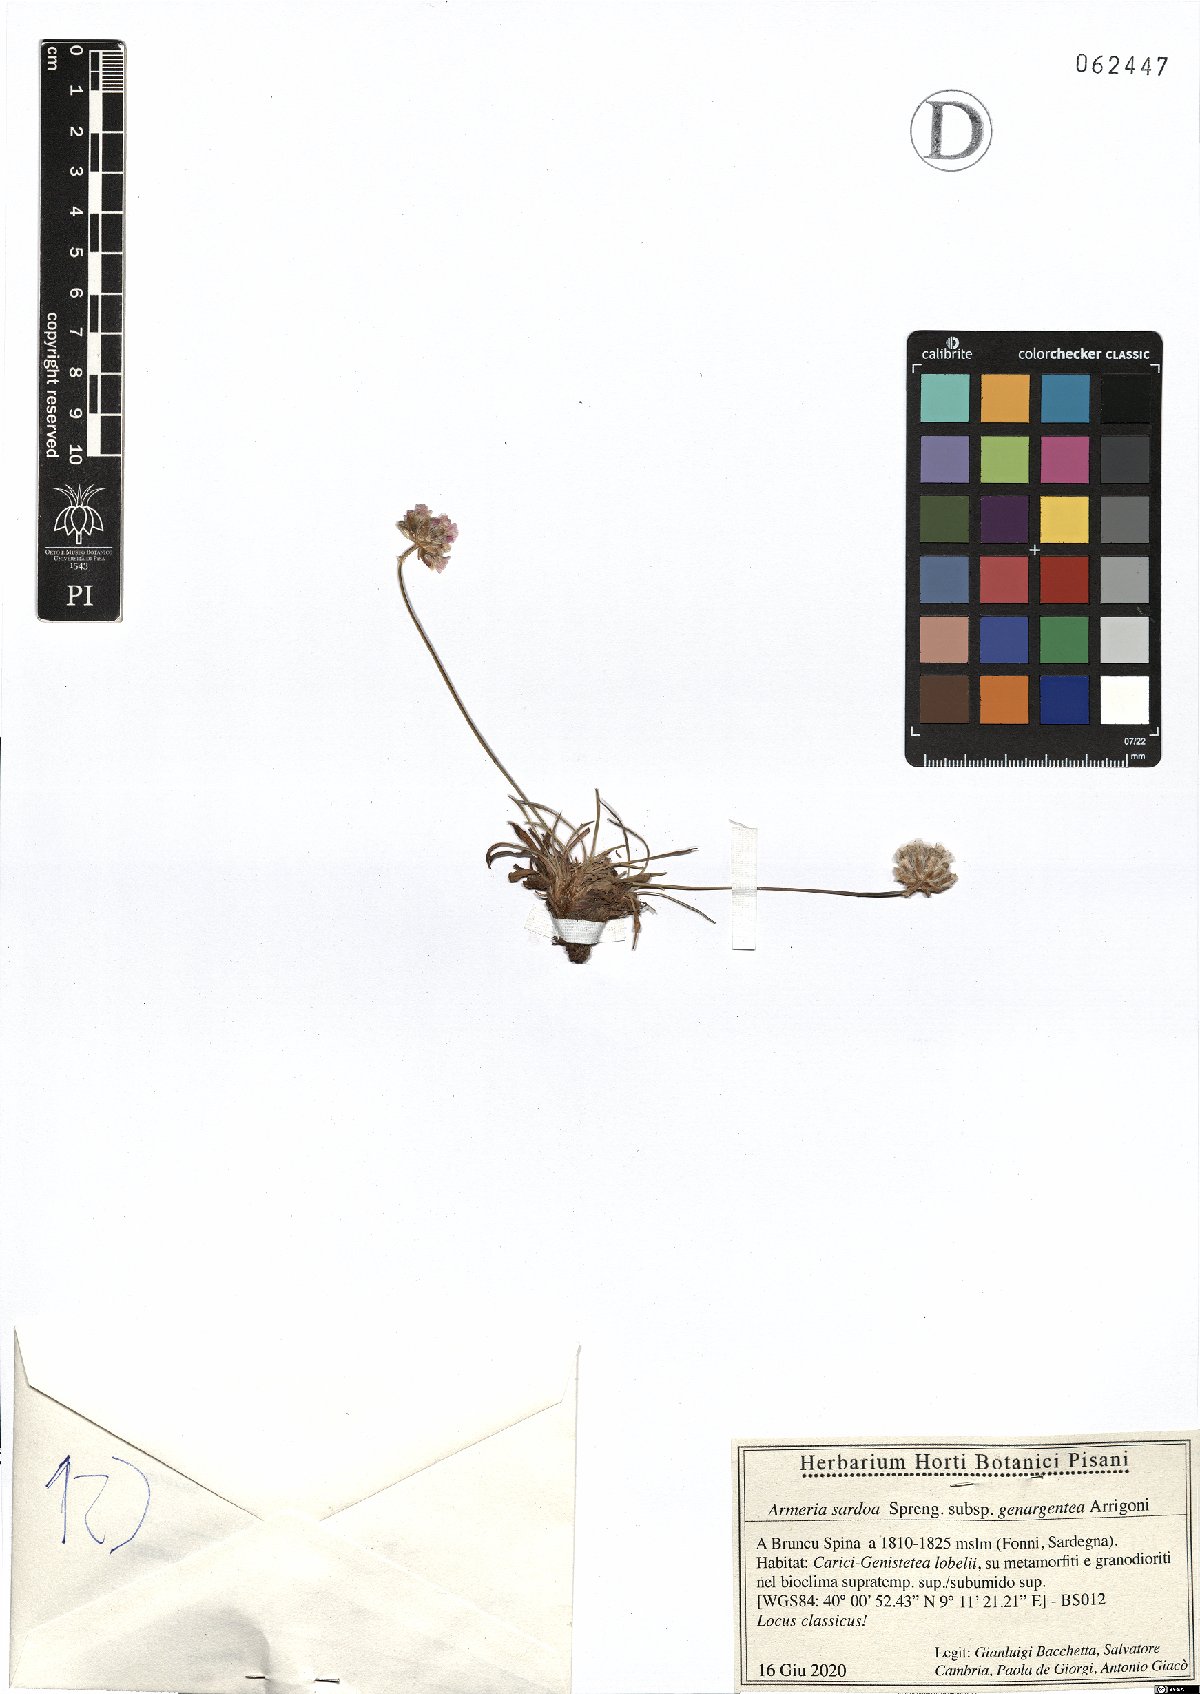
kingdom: Plantae
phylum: Tracheophyta
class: Magnoliopsida
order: Caryophyllales
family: Plumbaginaceae
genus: Armeria
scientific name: Armeria sardoa
